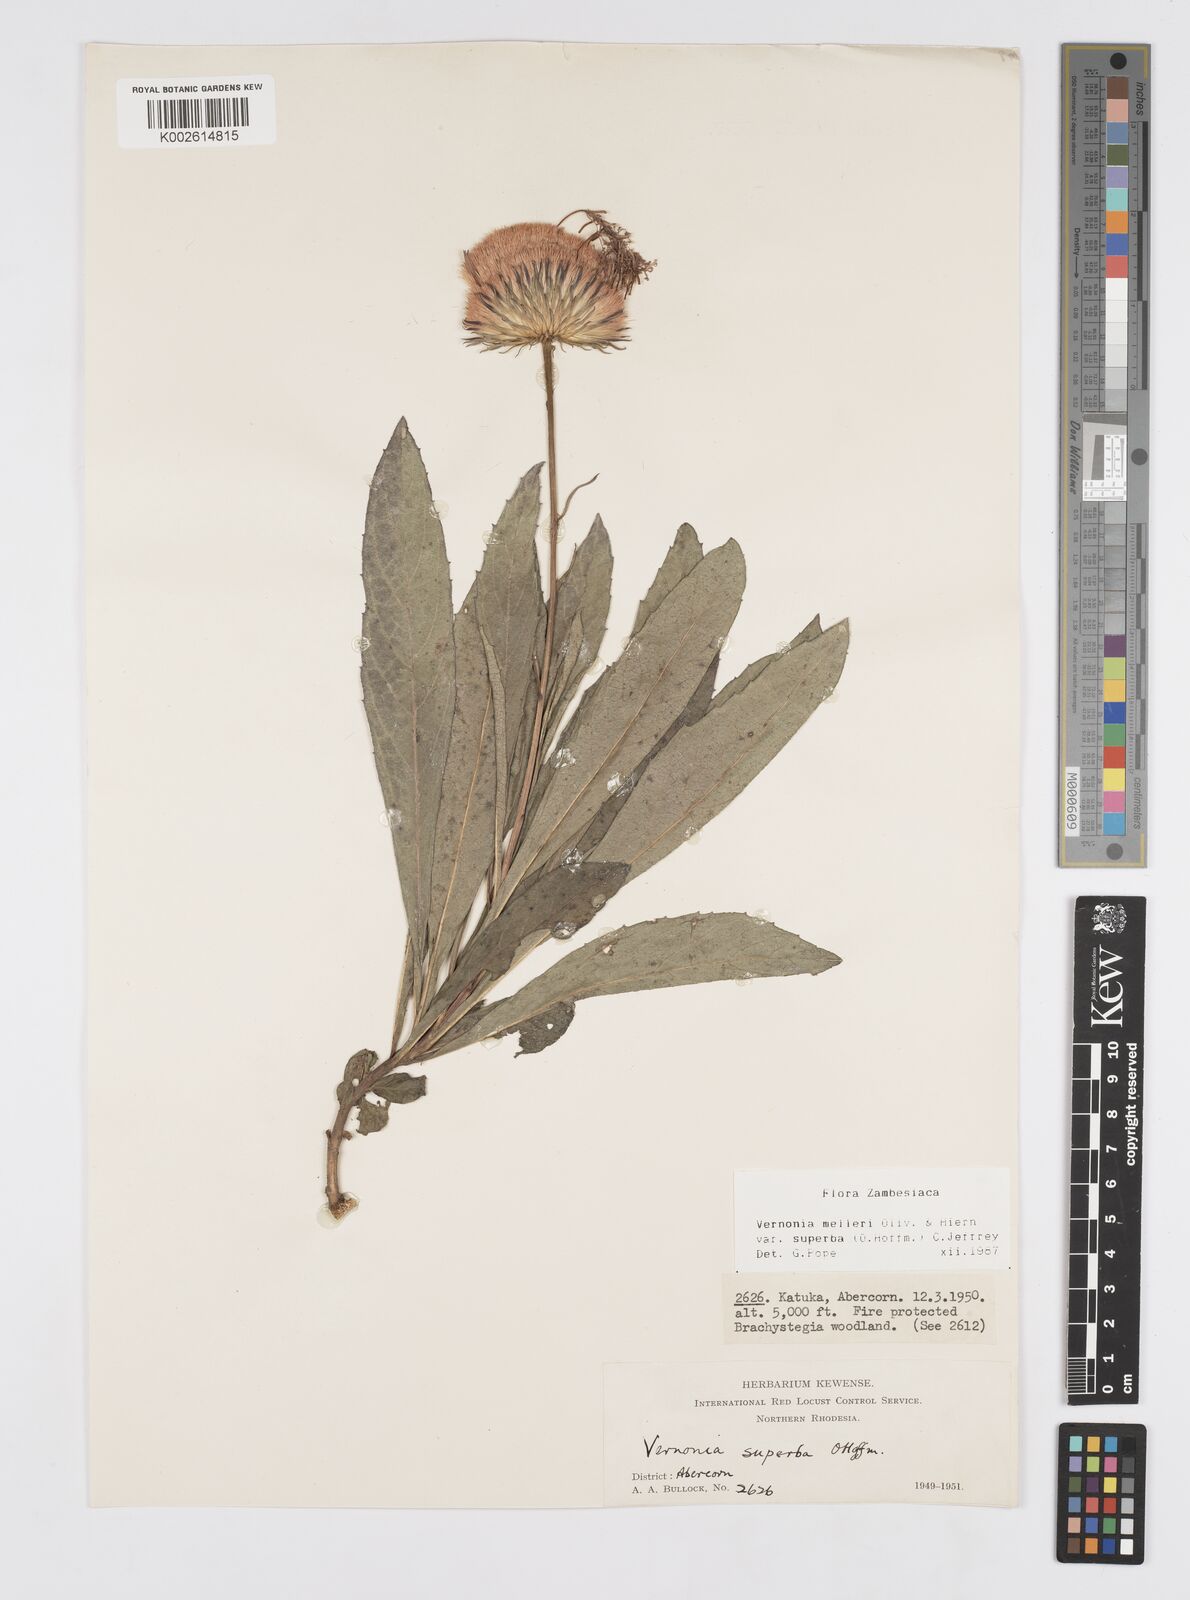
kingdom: Plantae
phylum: Tracheophyta
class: Magnoliopsida
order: Asterales
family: Asteraceae
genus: Linzia
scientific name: Linzia melleri
